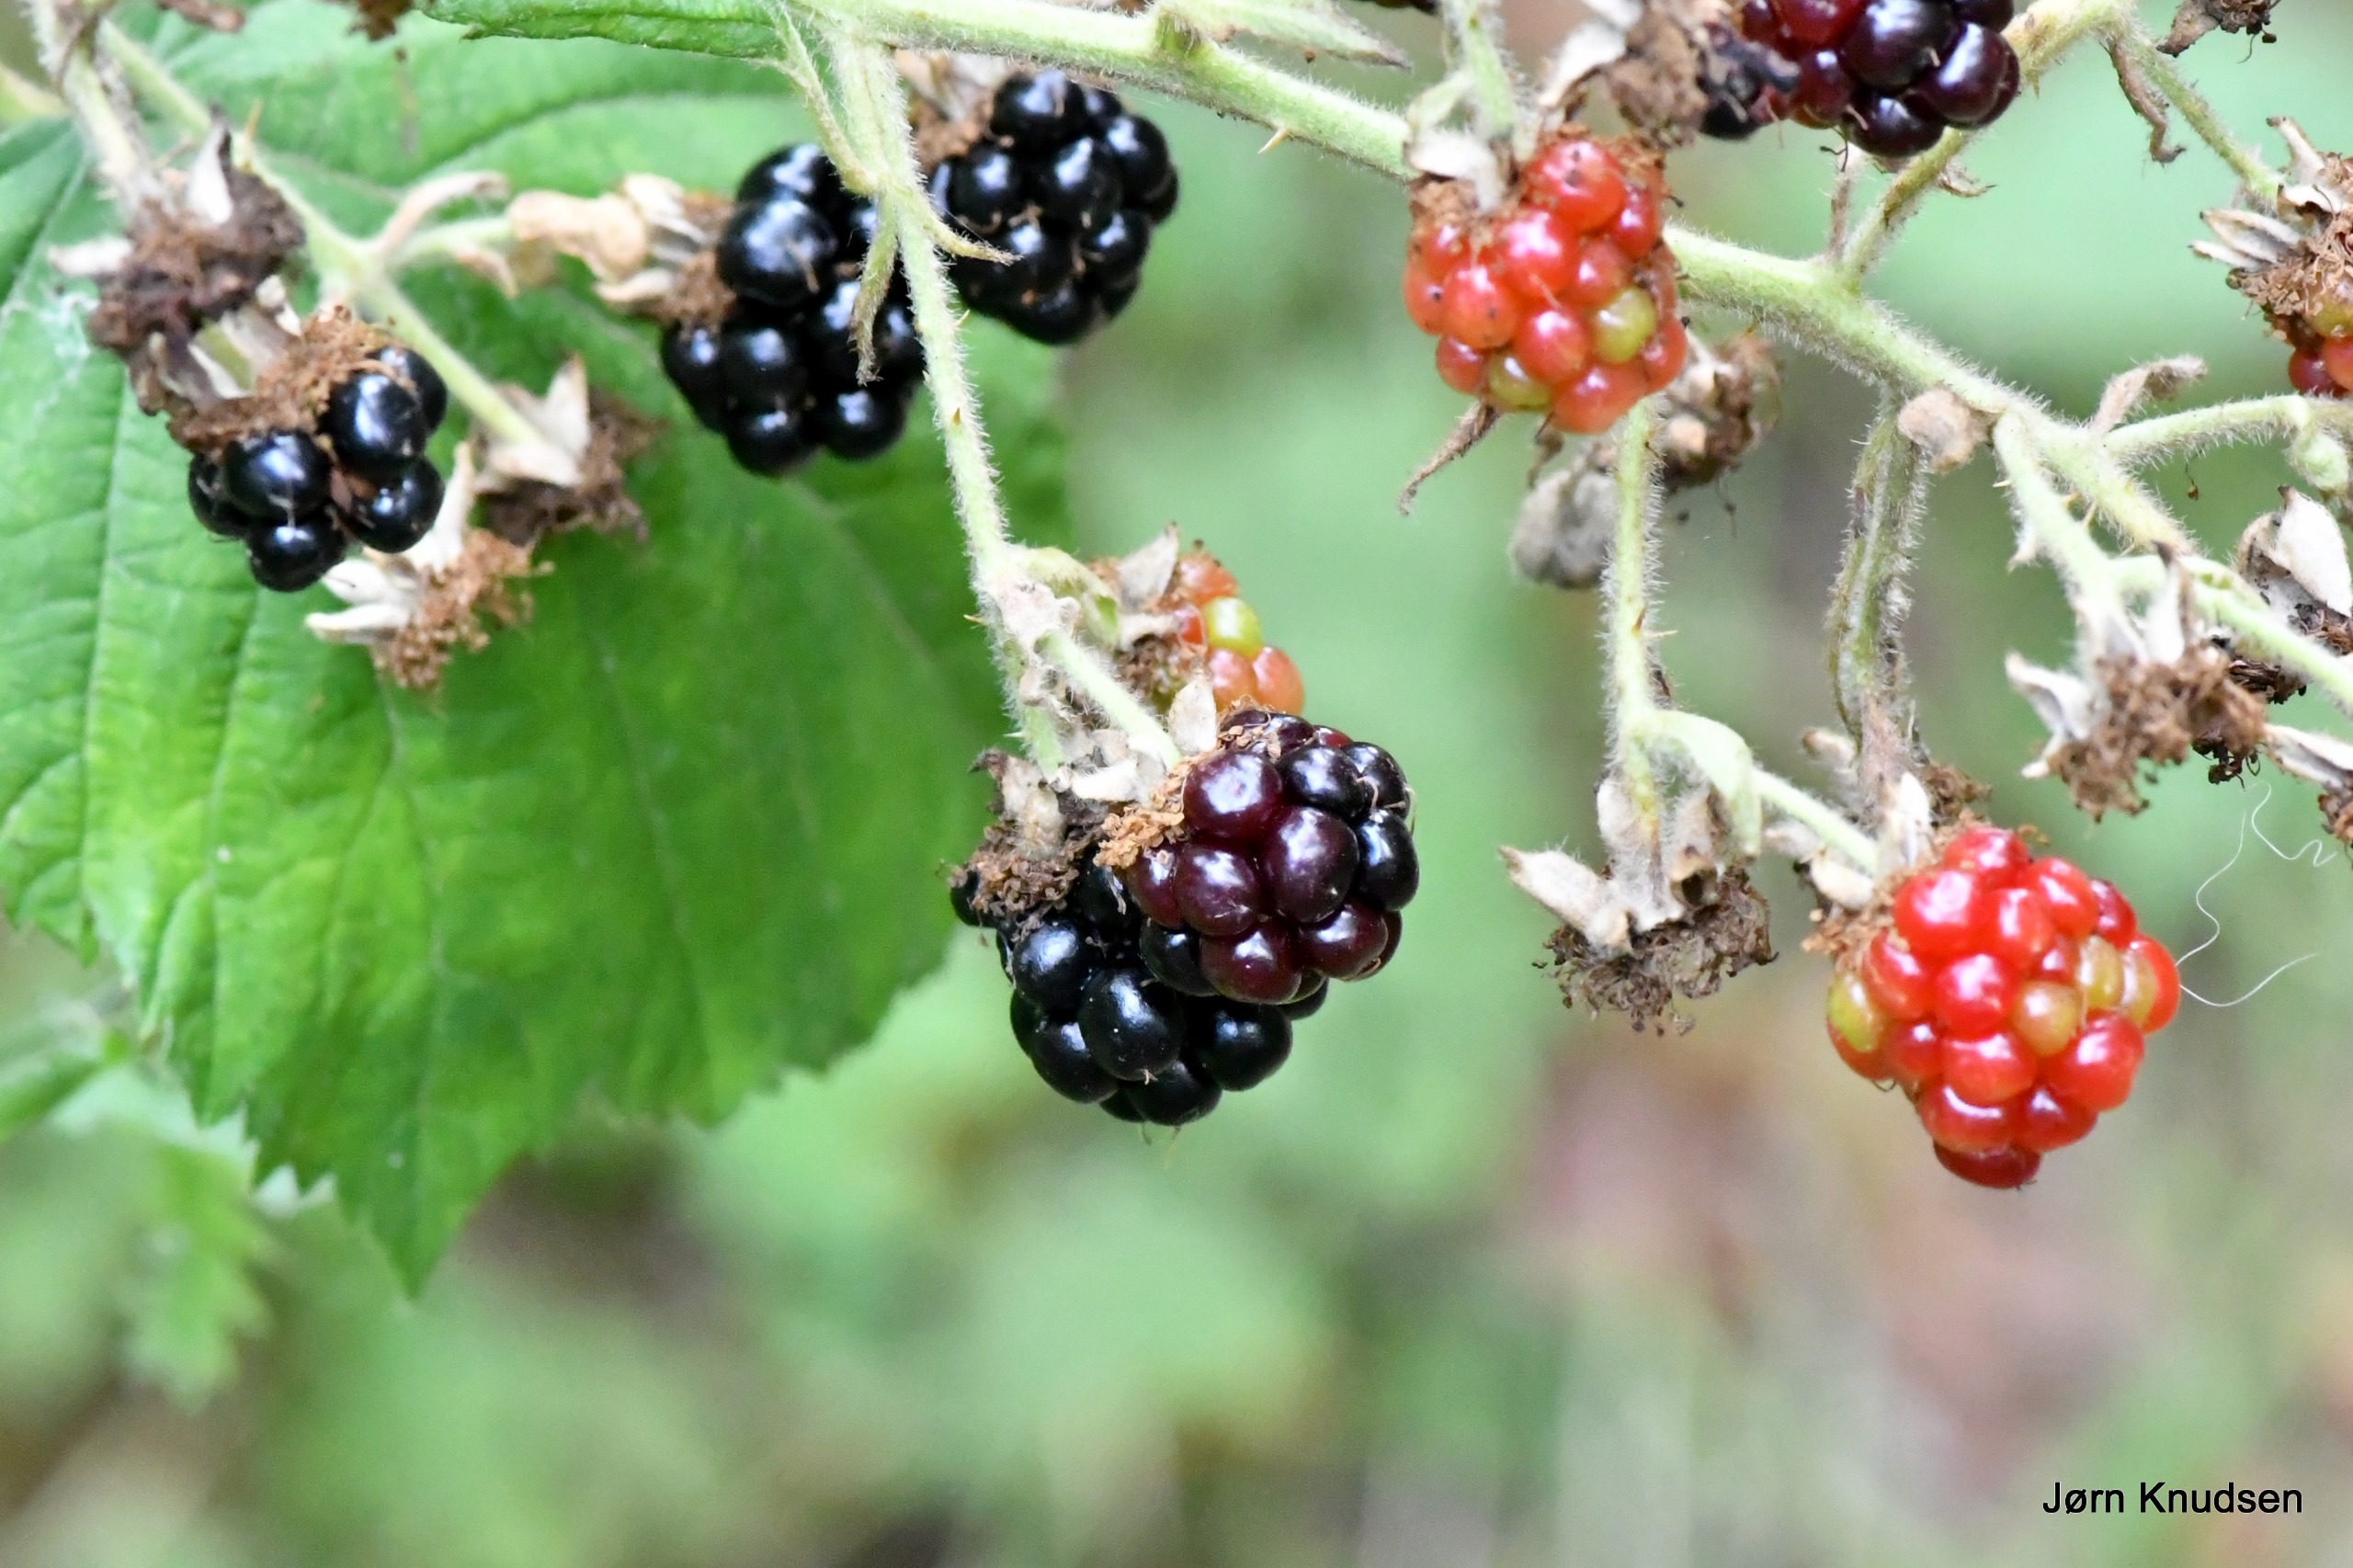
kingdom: Plantae
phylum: Tracheophyta
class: Magnoliopsida
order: Rosales
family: Rosaceae
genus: Rubus
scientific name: Rubus
